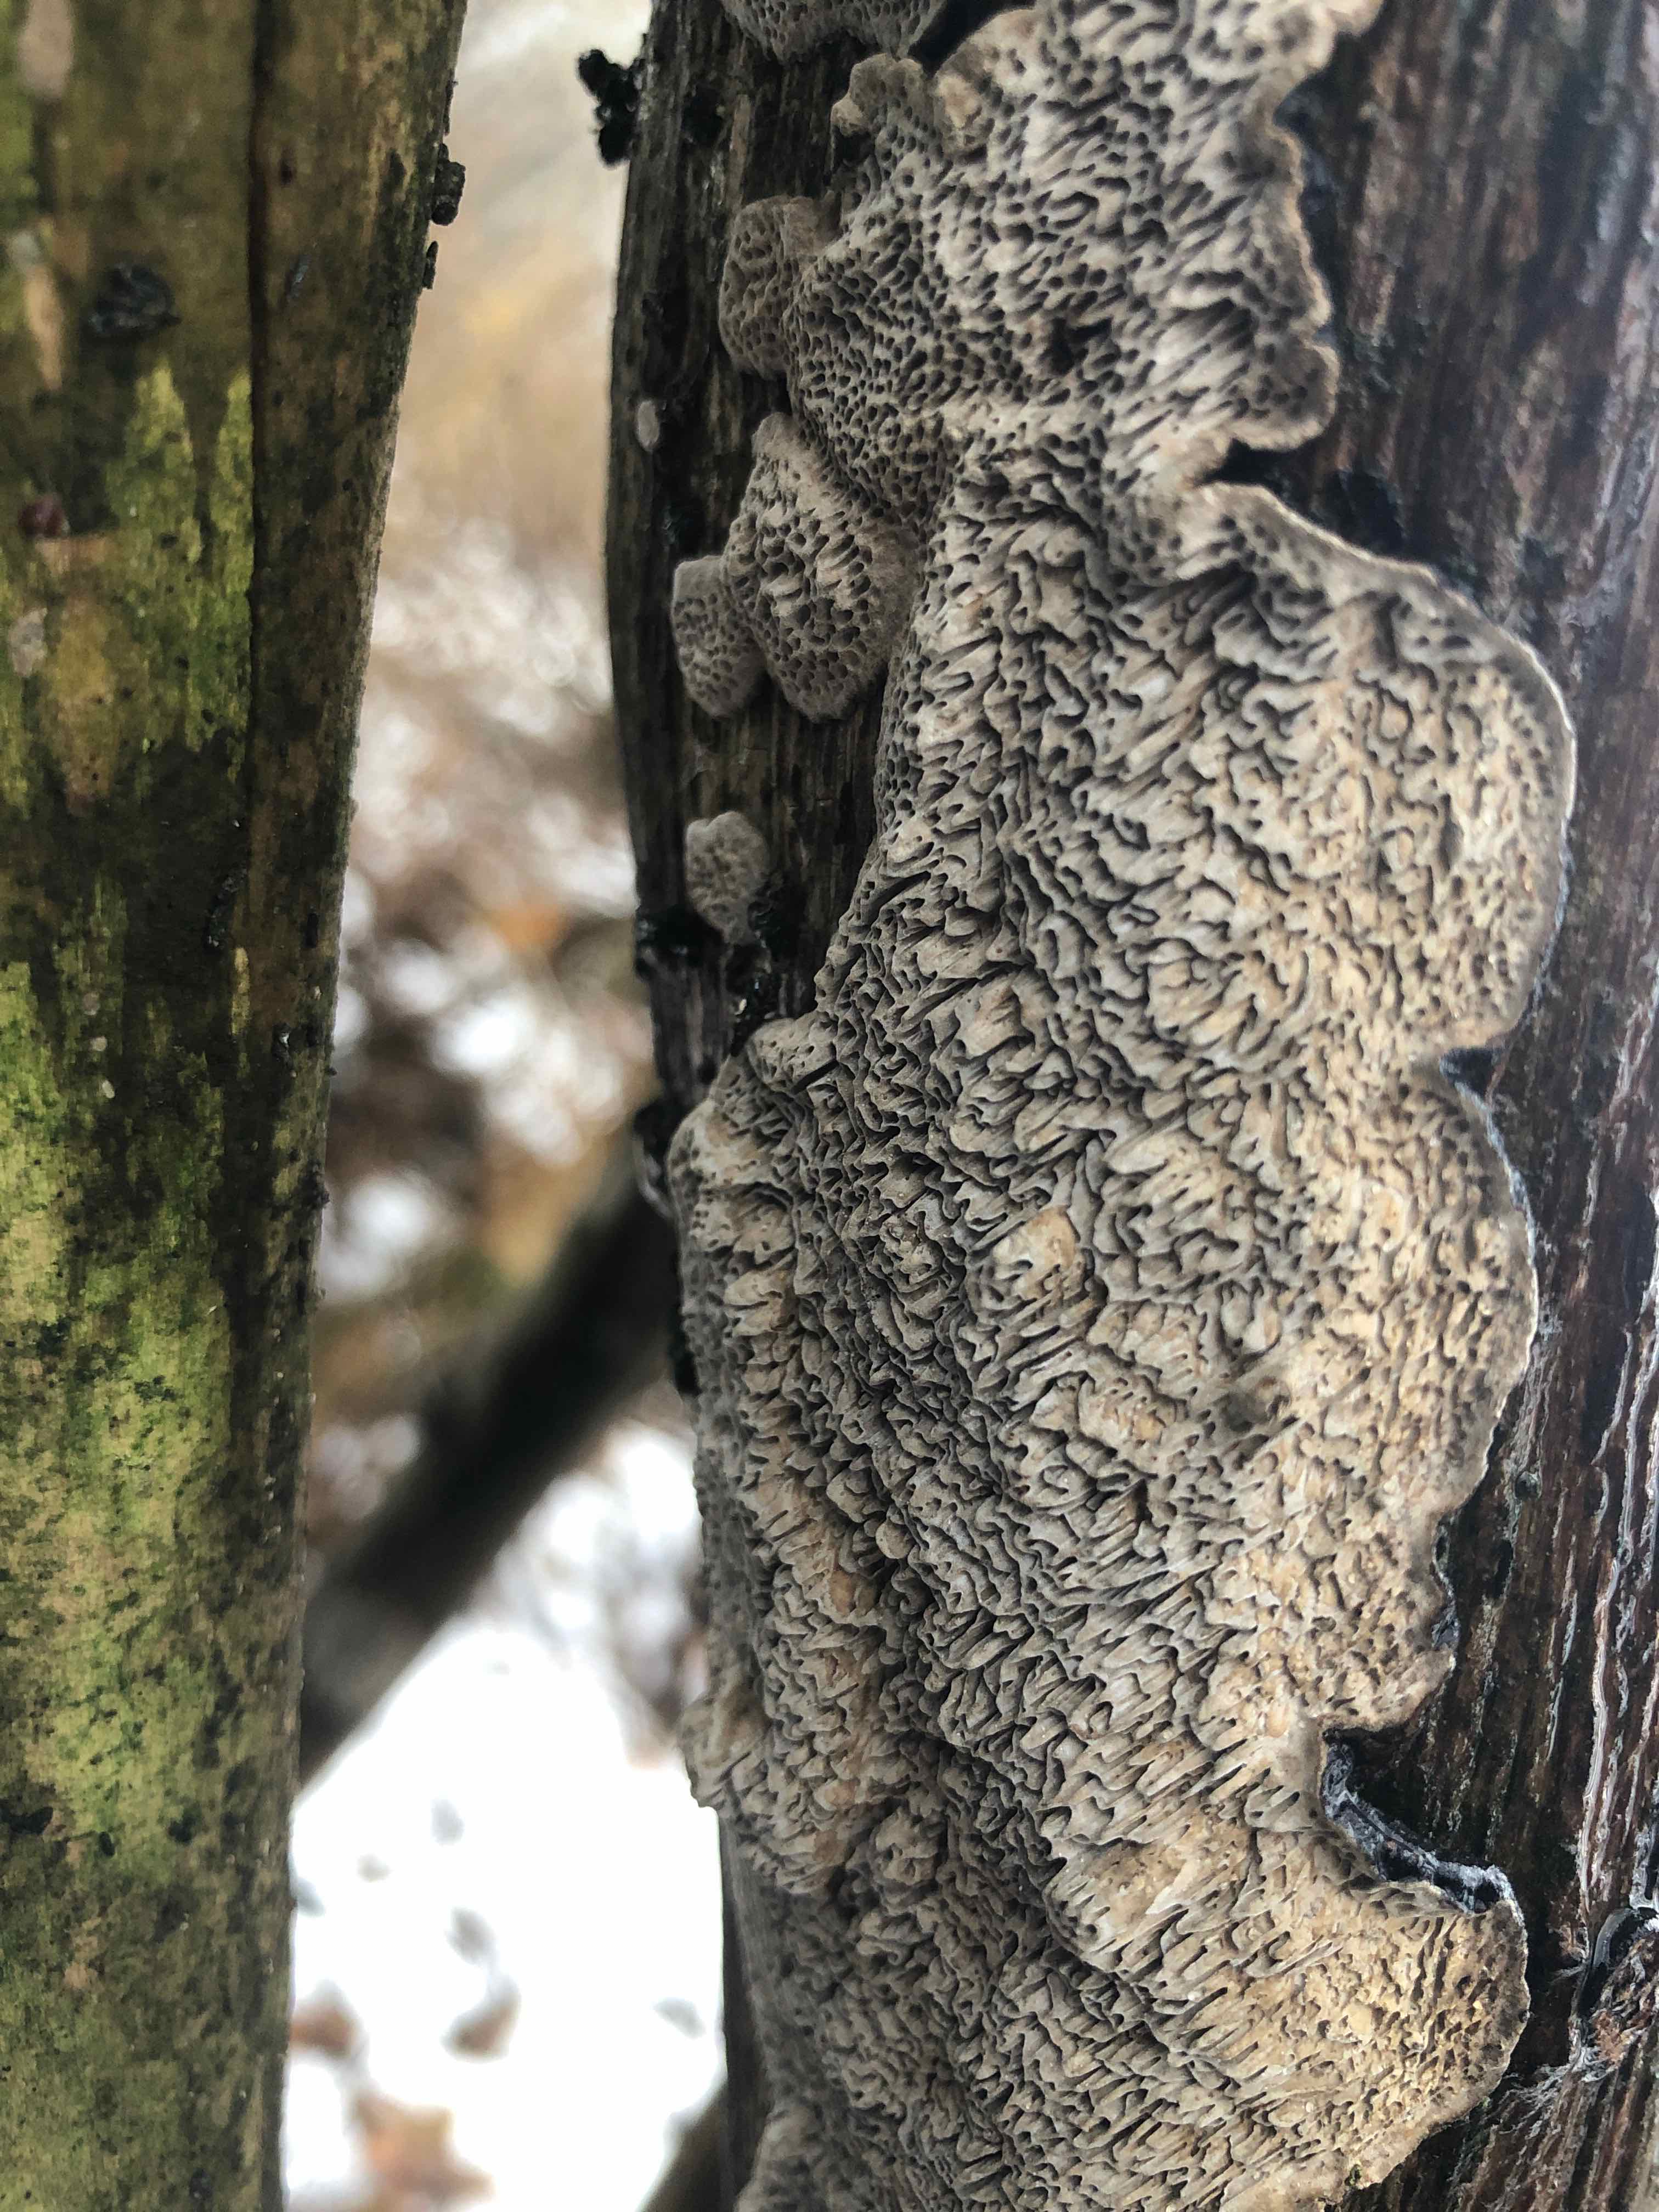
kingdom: Fungi
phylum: Basidiomycota
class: Agaricomycetes
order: Polyporales
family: Polyporaceae
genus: Podofomes
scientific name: Podofomes mollis
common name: blød begporesvamp
